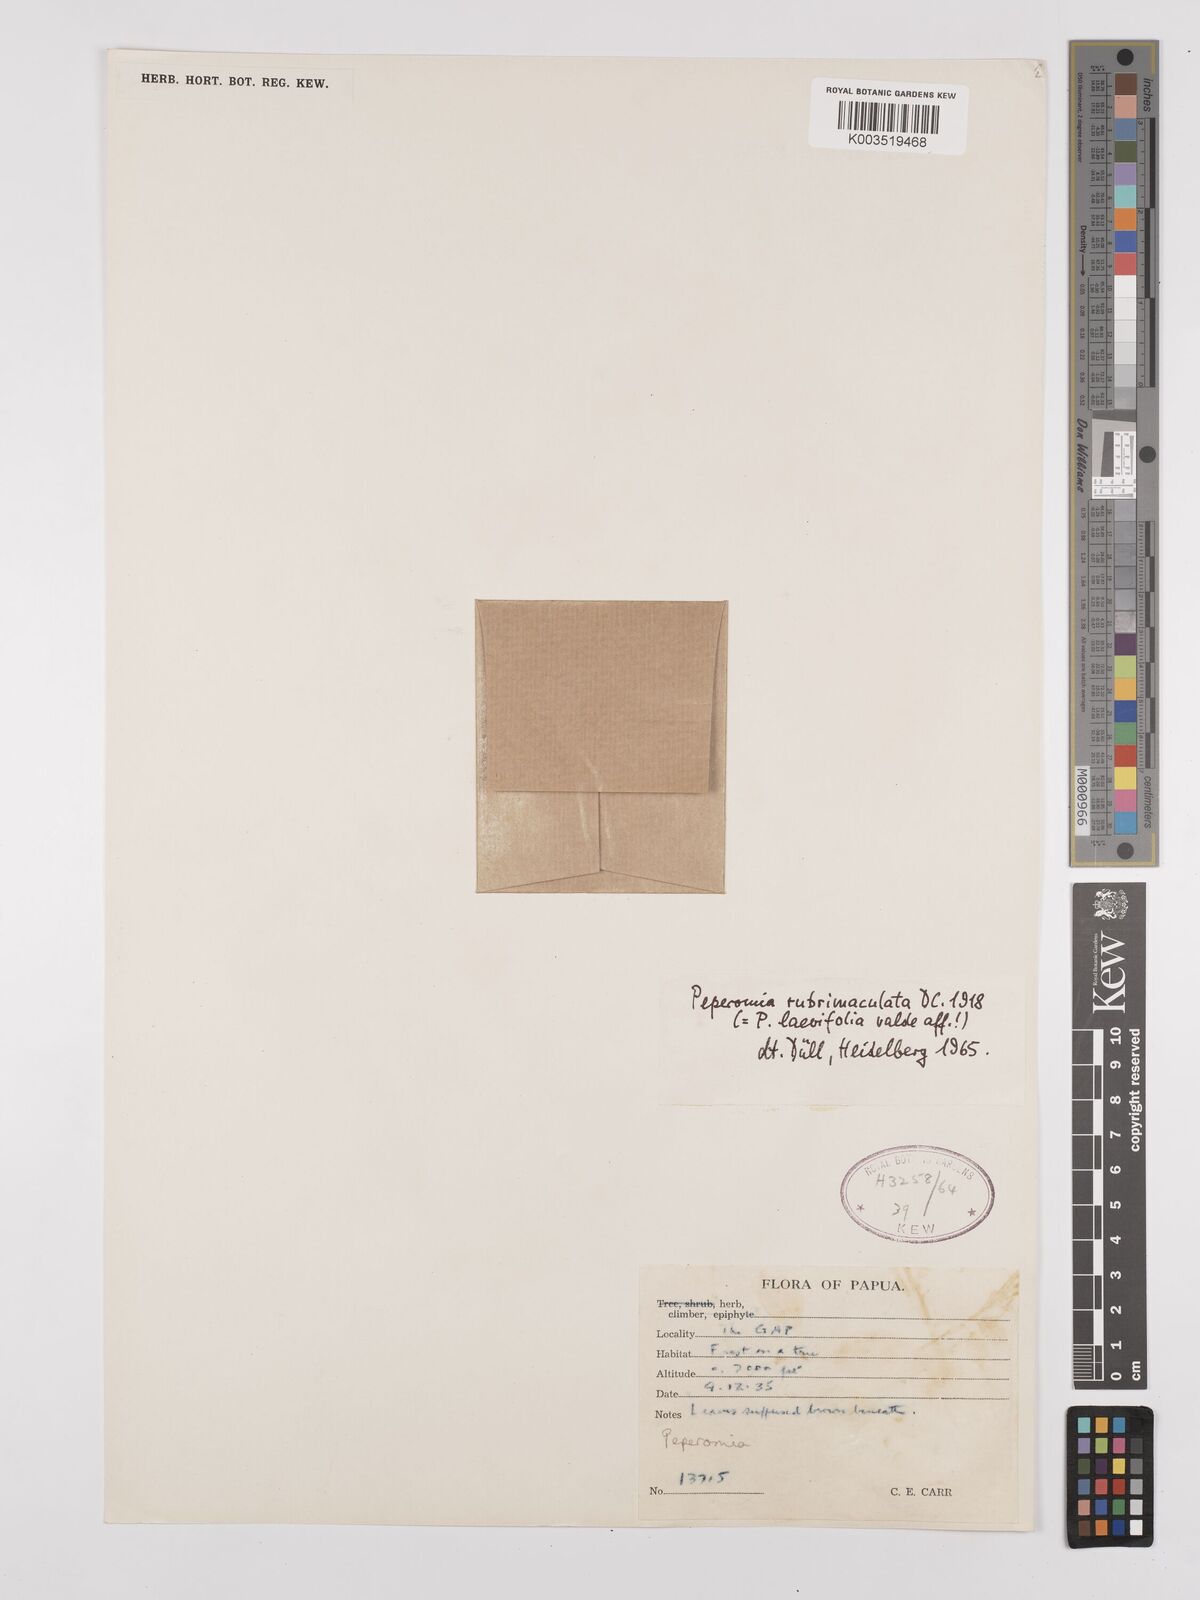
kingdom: Plantae
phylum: Tracheophyta
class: Magnoliopsida
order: Piperales
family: Piperaceae
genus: Peperomia
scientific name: Peperomia laevifolia
